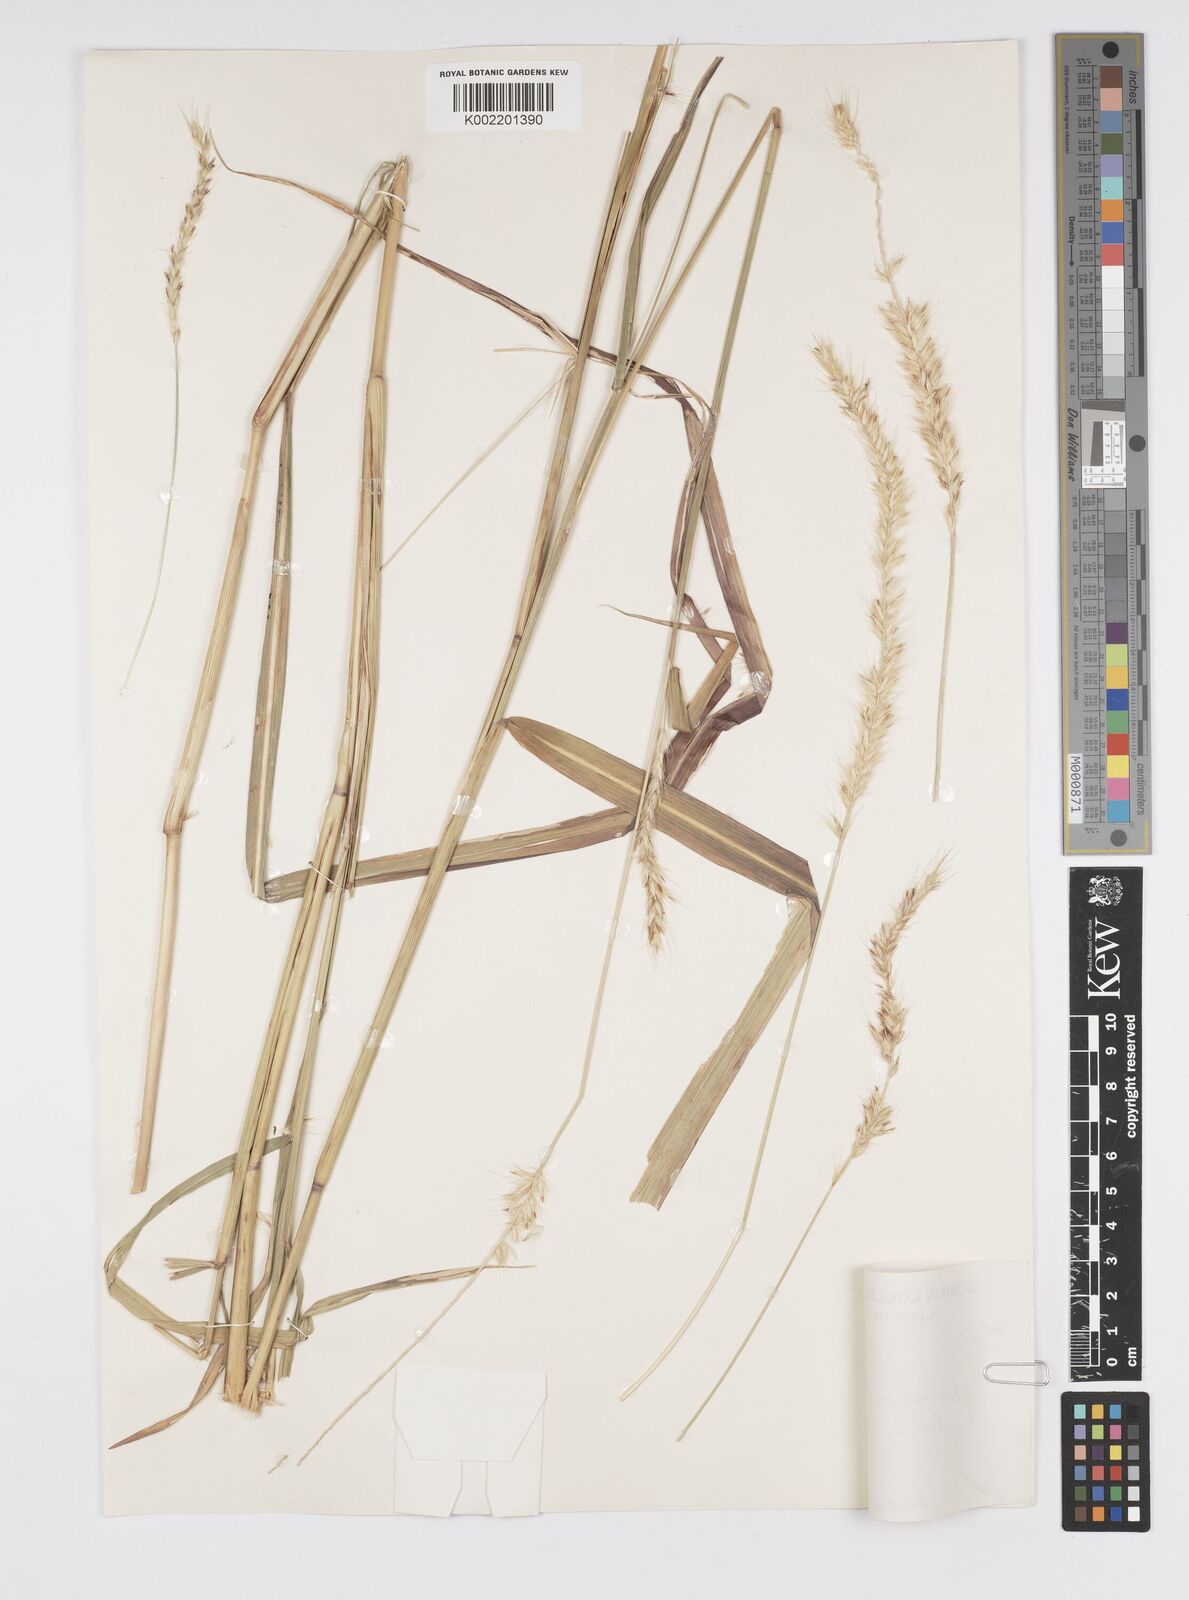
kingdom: Plantae
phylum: Tracheophyta
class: Liliopsida
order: Poales
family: Poaceae
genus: Cenchrus
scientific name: Cenchrus flaccidus
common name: Flaccid grass
